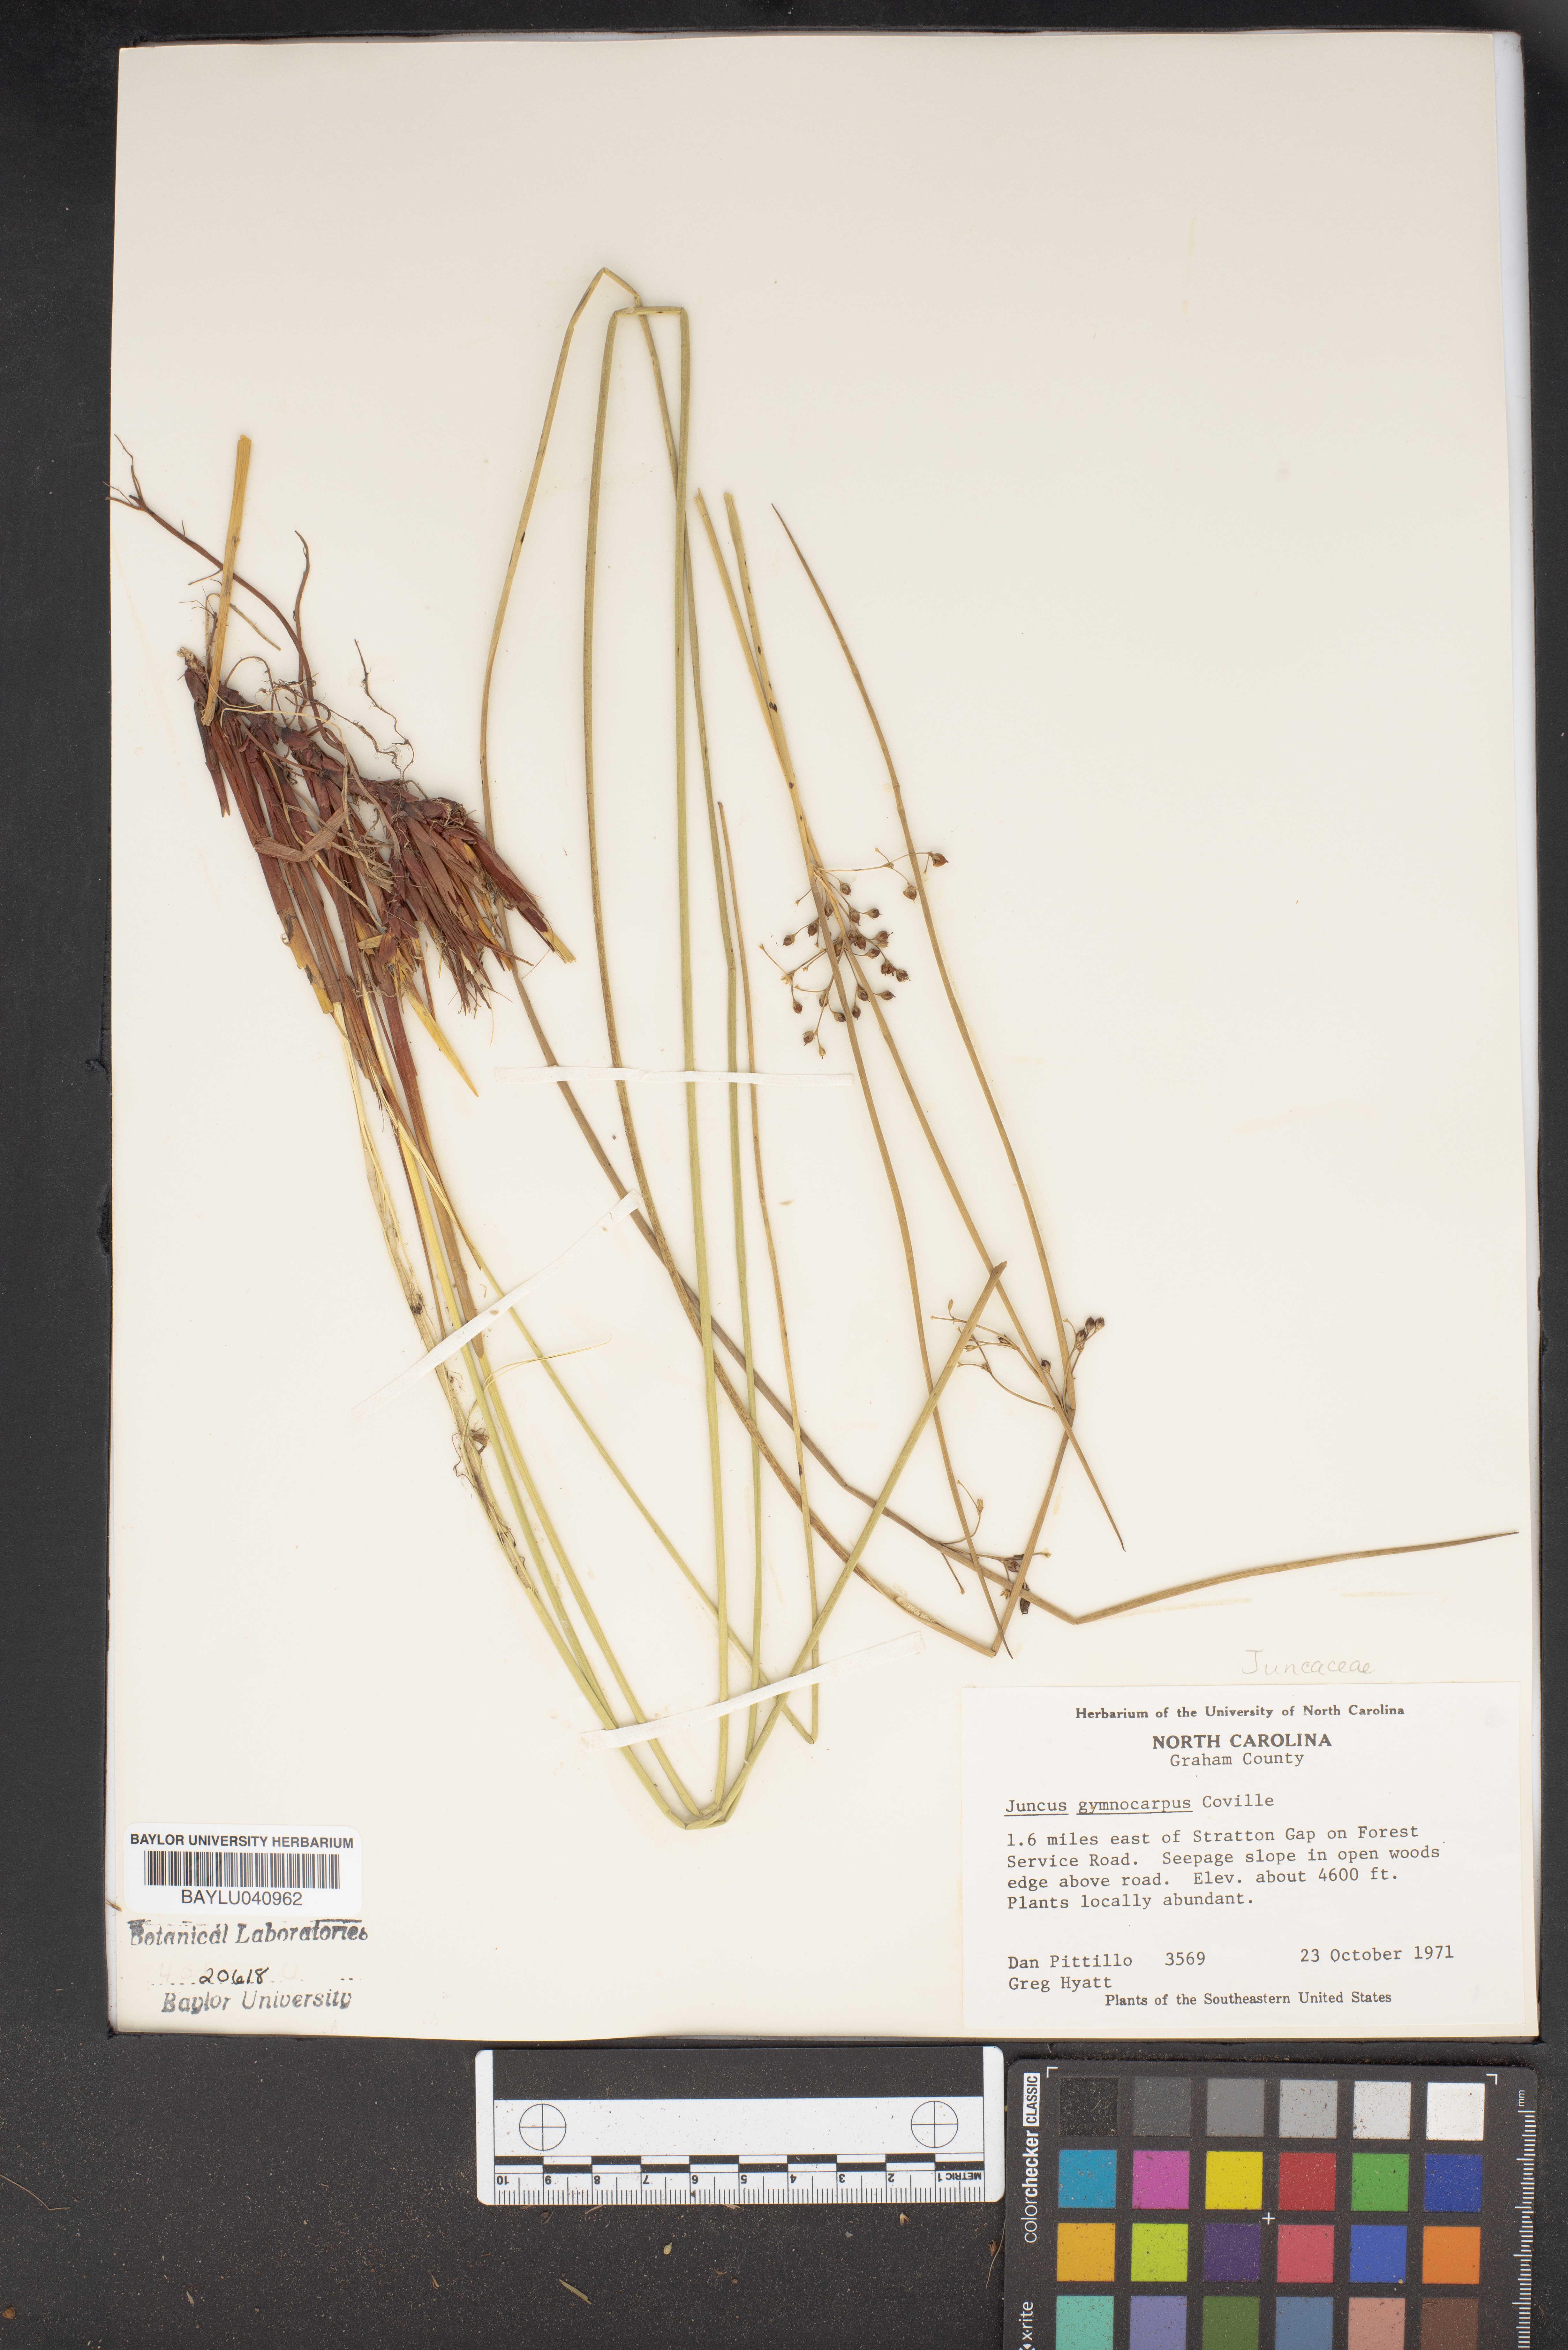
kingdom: Plantae
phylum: Tracheophyta
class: Liliopsida
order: Poales
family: Juncaceae
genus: Juncus
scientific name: Juncus gymnocarpus
